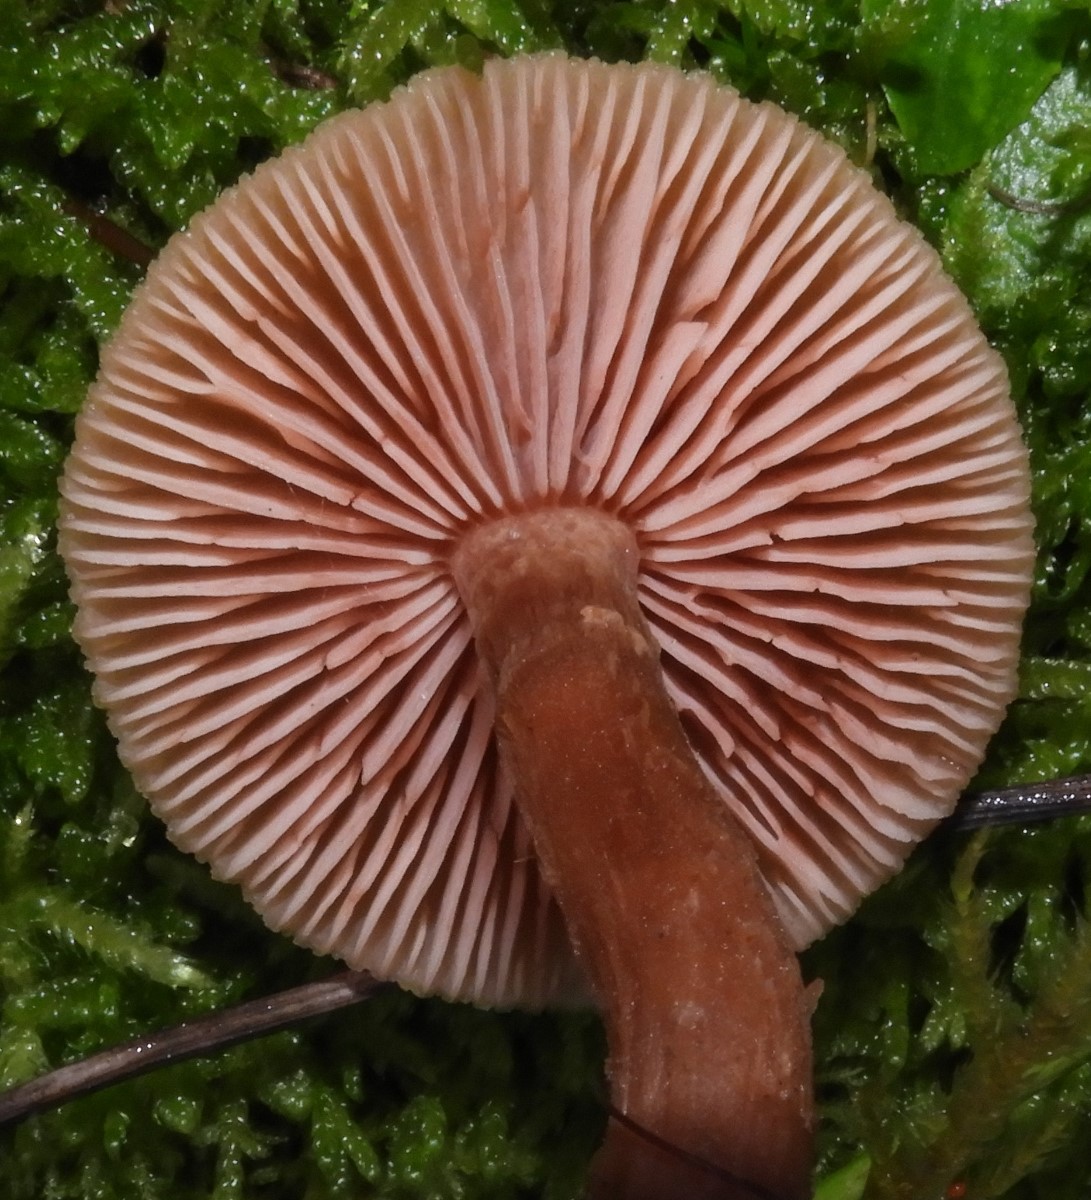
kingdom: Fungi
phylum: Basidiomycota
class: Agaricomycetes
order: Agaricales
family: Hydnangiaceae
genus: Laccaria
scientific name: Laccaria proxima
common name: stor ametysthat
